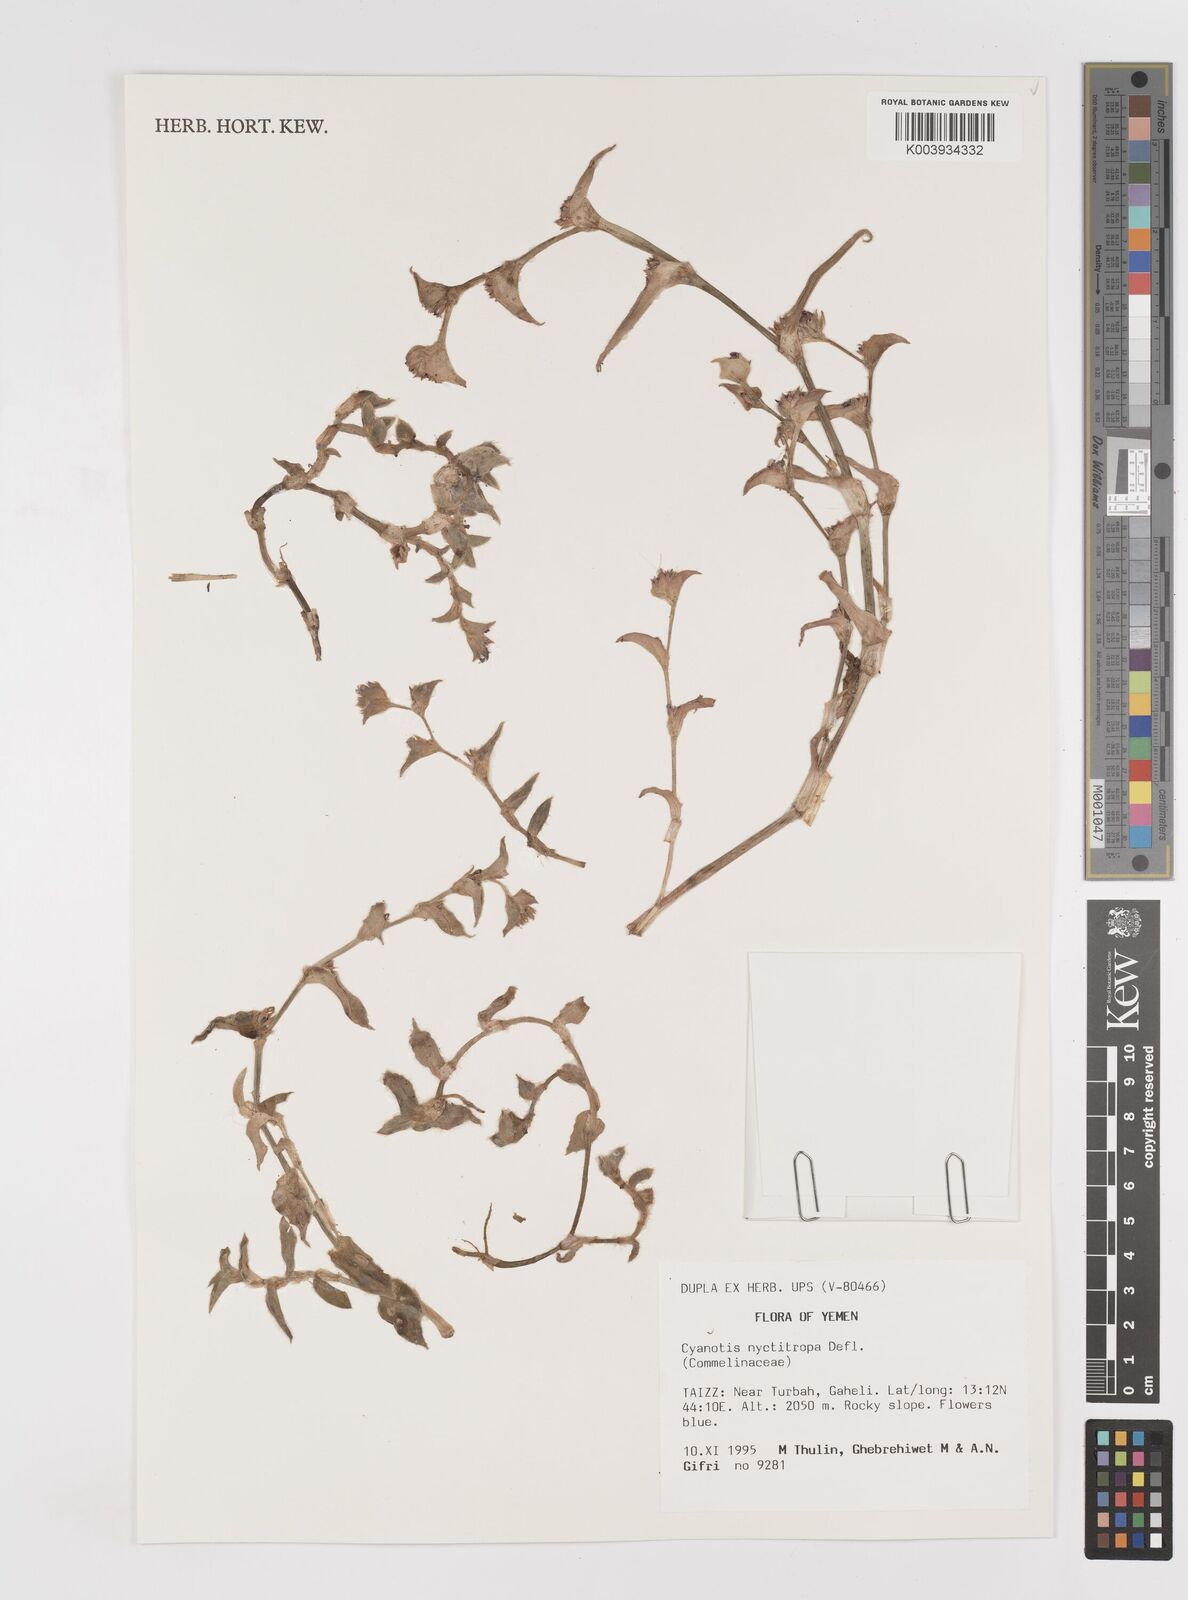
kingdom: Plantae
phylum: Tracheophyta
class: Liliopsida
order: Commelinales
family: Commelinaceae
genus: Cyanotis
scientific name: Cyanotis nyctitropa
